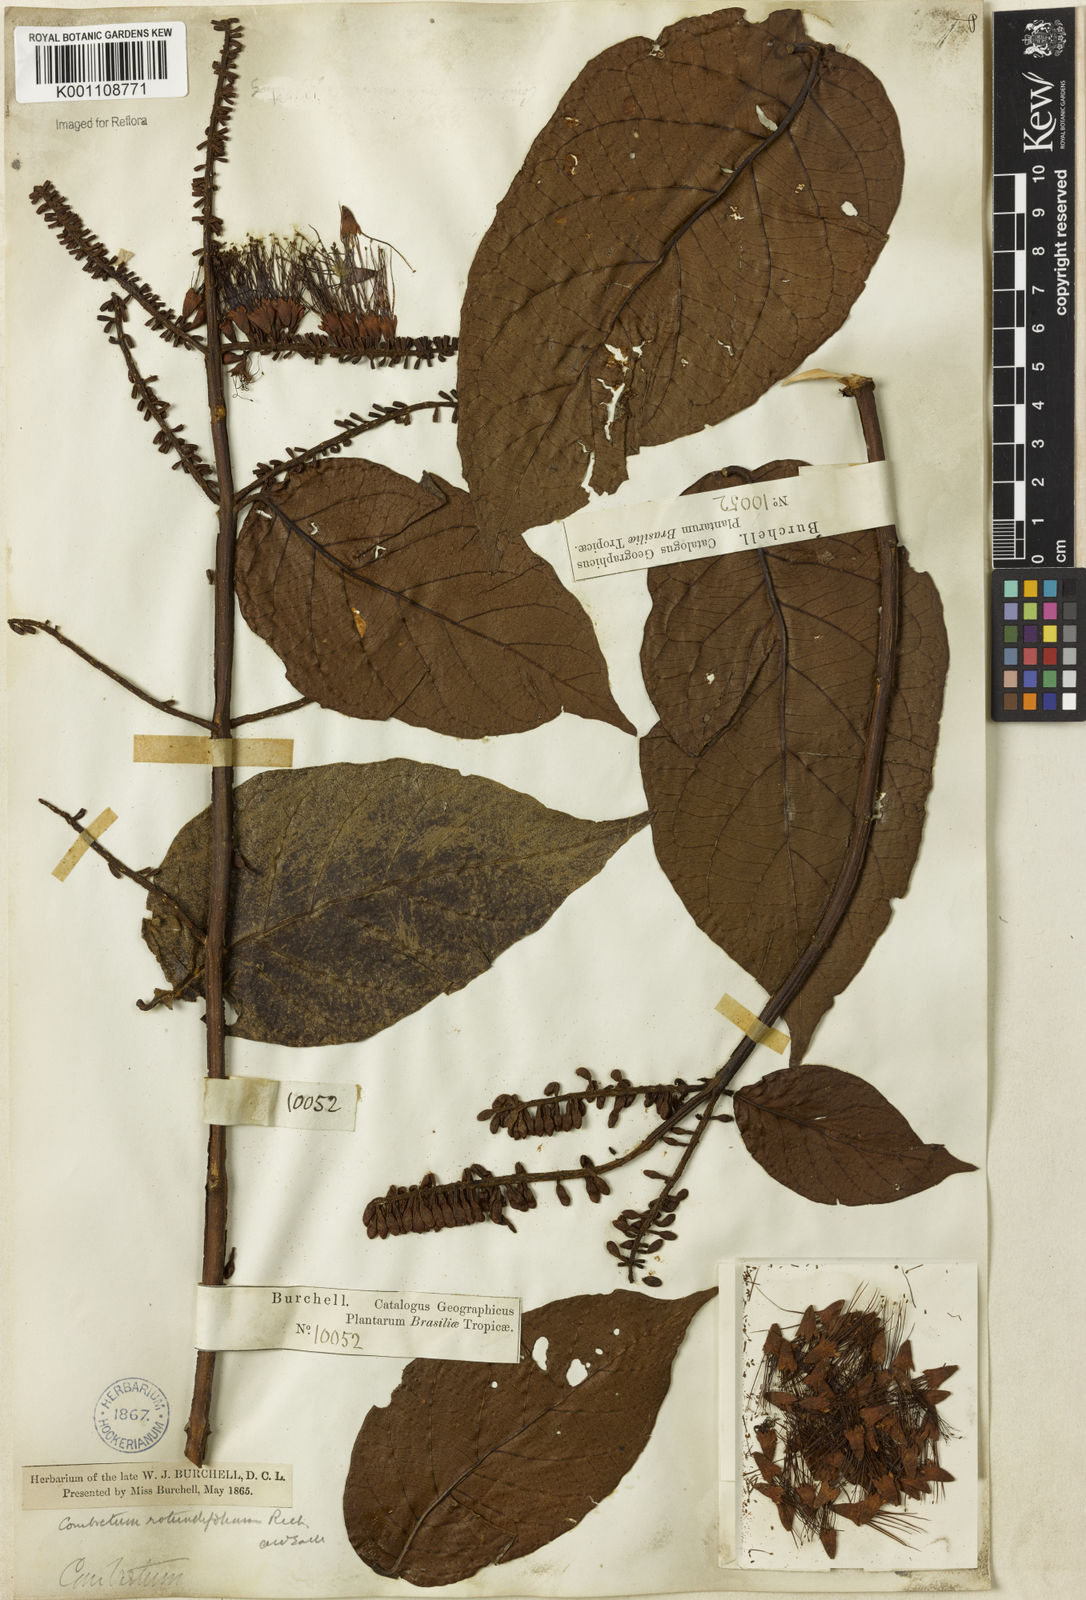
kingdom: Plantae
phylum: Tracheophyta
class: Magnoliopsida
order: Myrtales
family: Combretaceae
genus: Combretum
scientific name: Combretum rotundifolium
